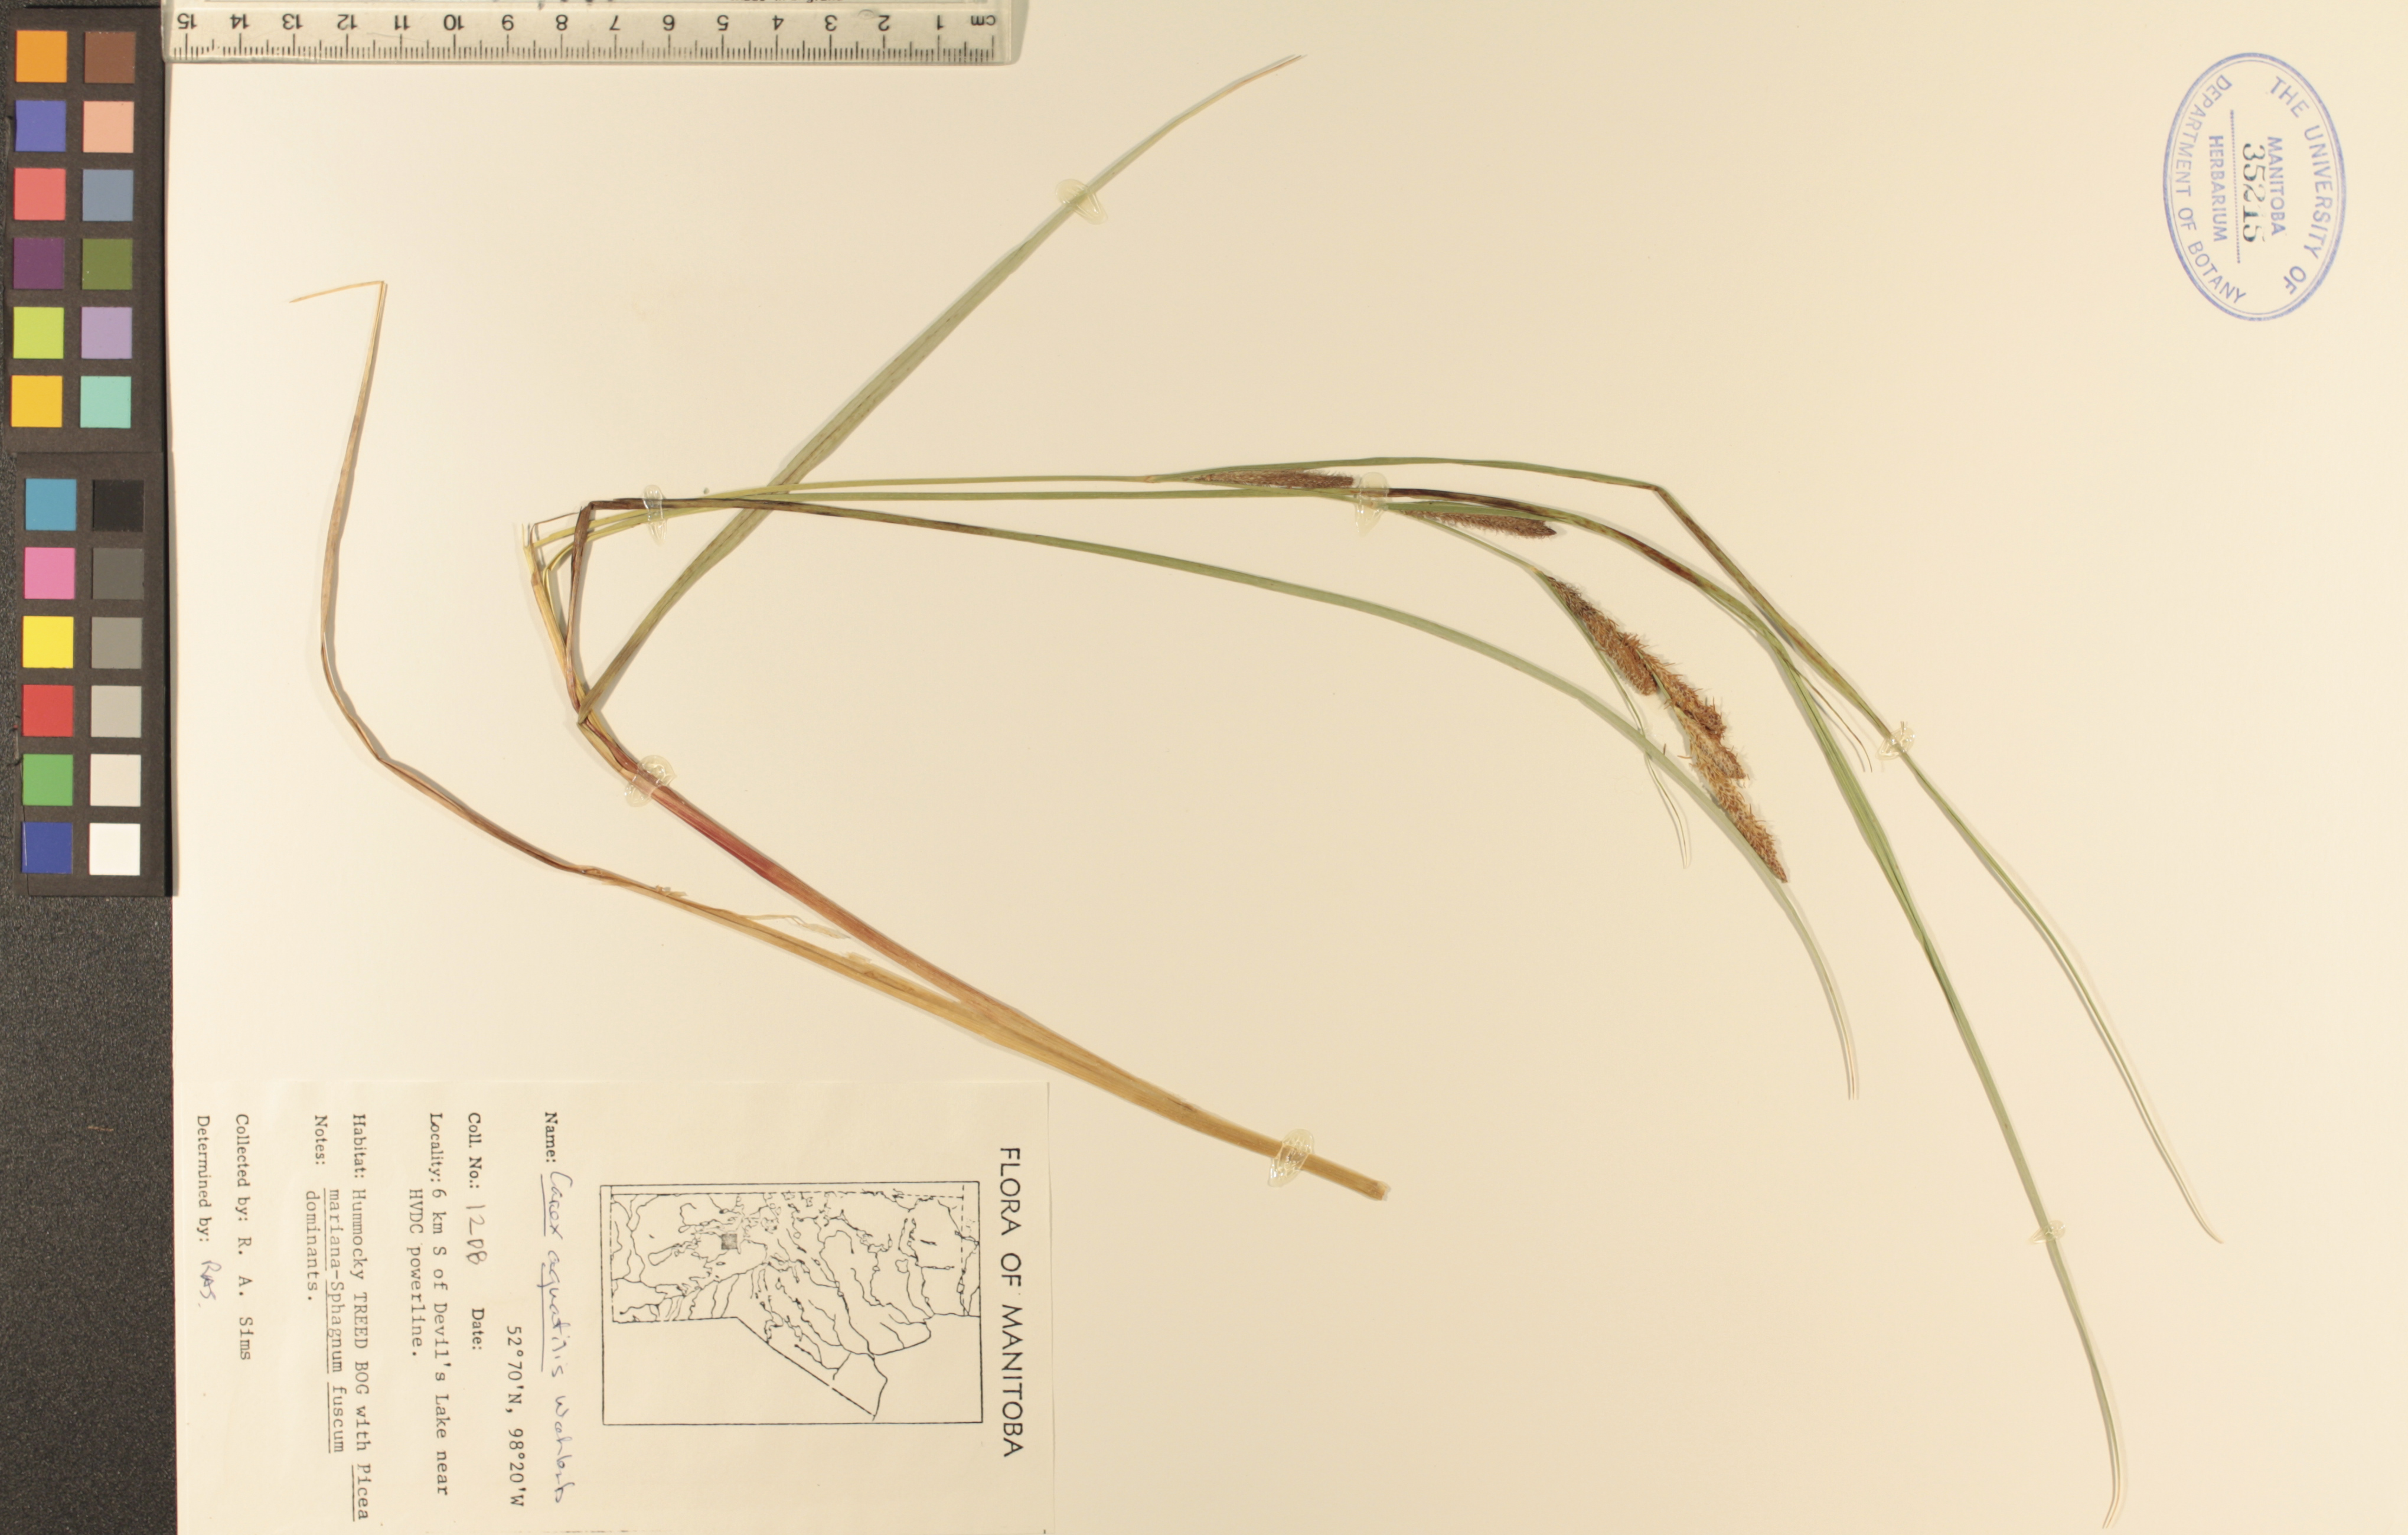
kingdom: Plantae
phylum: Tracheophyta
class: Liliopsida
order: Poales
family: Cyperaceae
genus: Carex
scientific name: Carex aquatilis
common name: Water sedge
